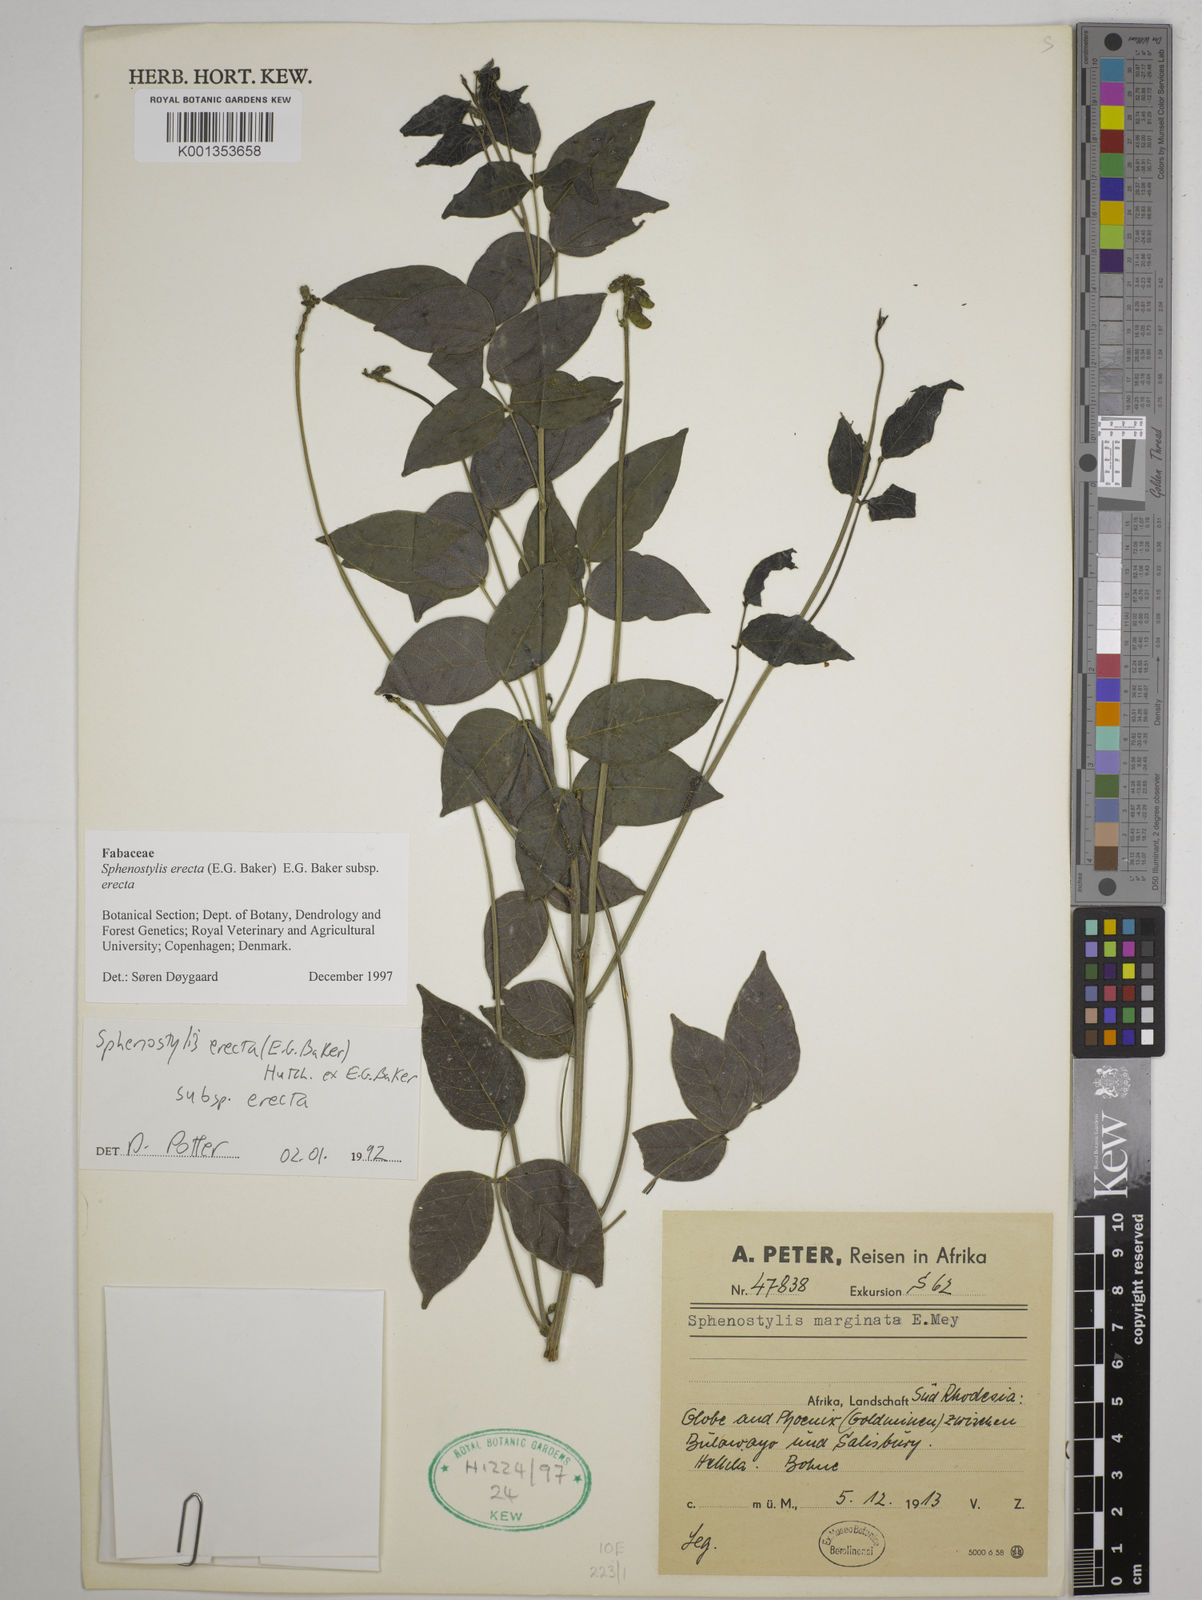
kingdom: Plantae
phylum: Tracheophyta
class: Magnoliopsida
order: Fabales
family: Fabaceae
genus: Sphenostylis
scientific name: Sphenostylis erecta
